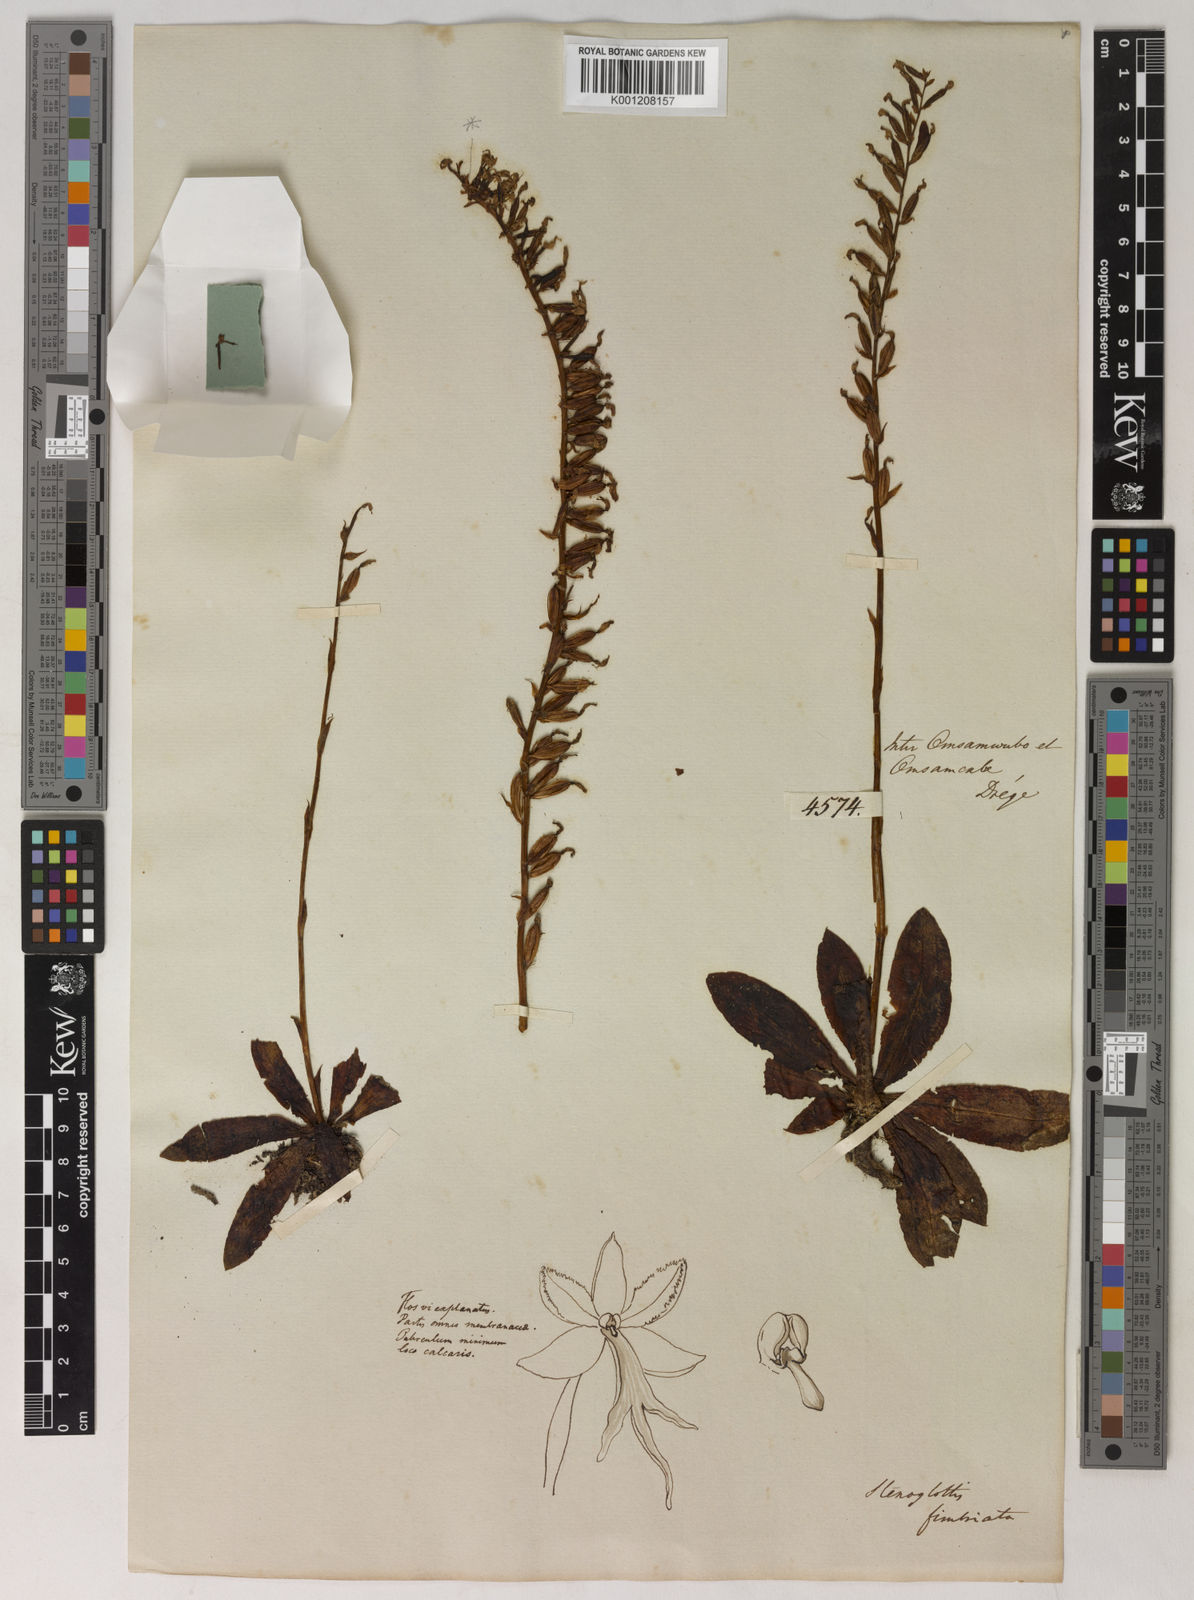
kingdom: Plantae
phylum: Tracheophyta
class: Liliopsida
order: Asparagales
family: Orchidaceae
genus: Stenoglottis
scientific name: Stenoglottis fimbriata
